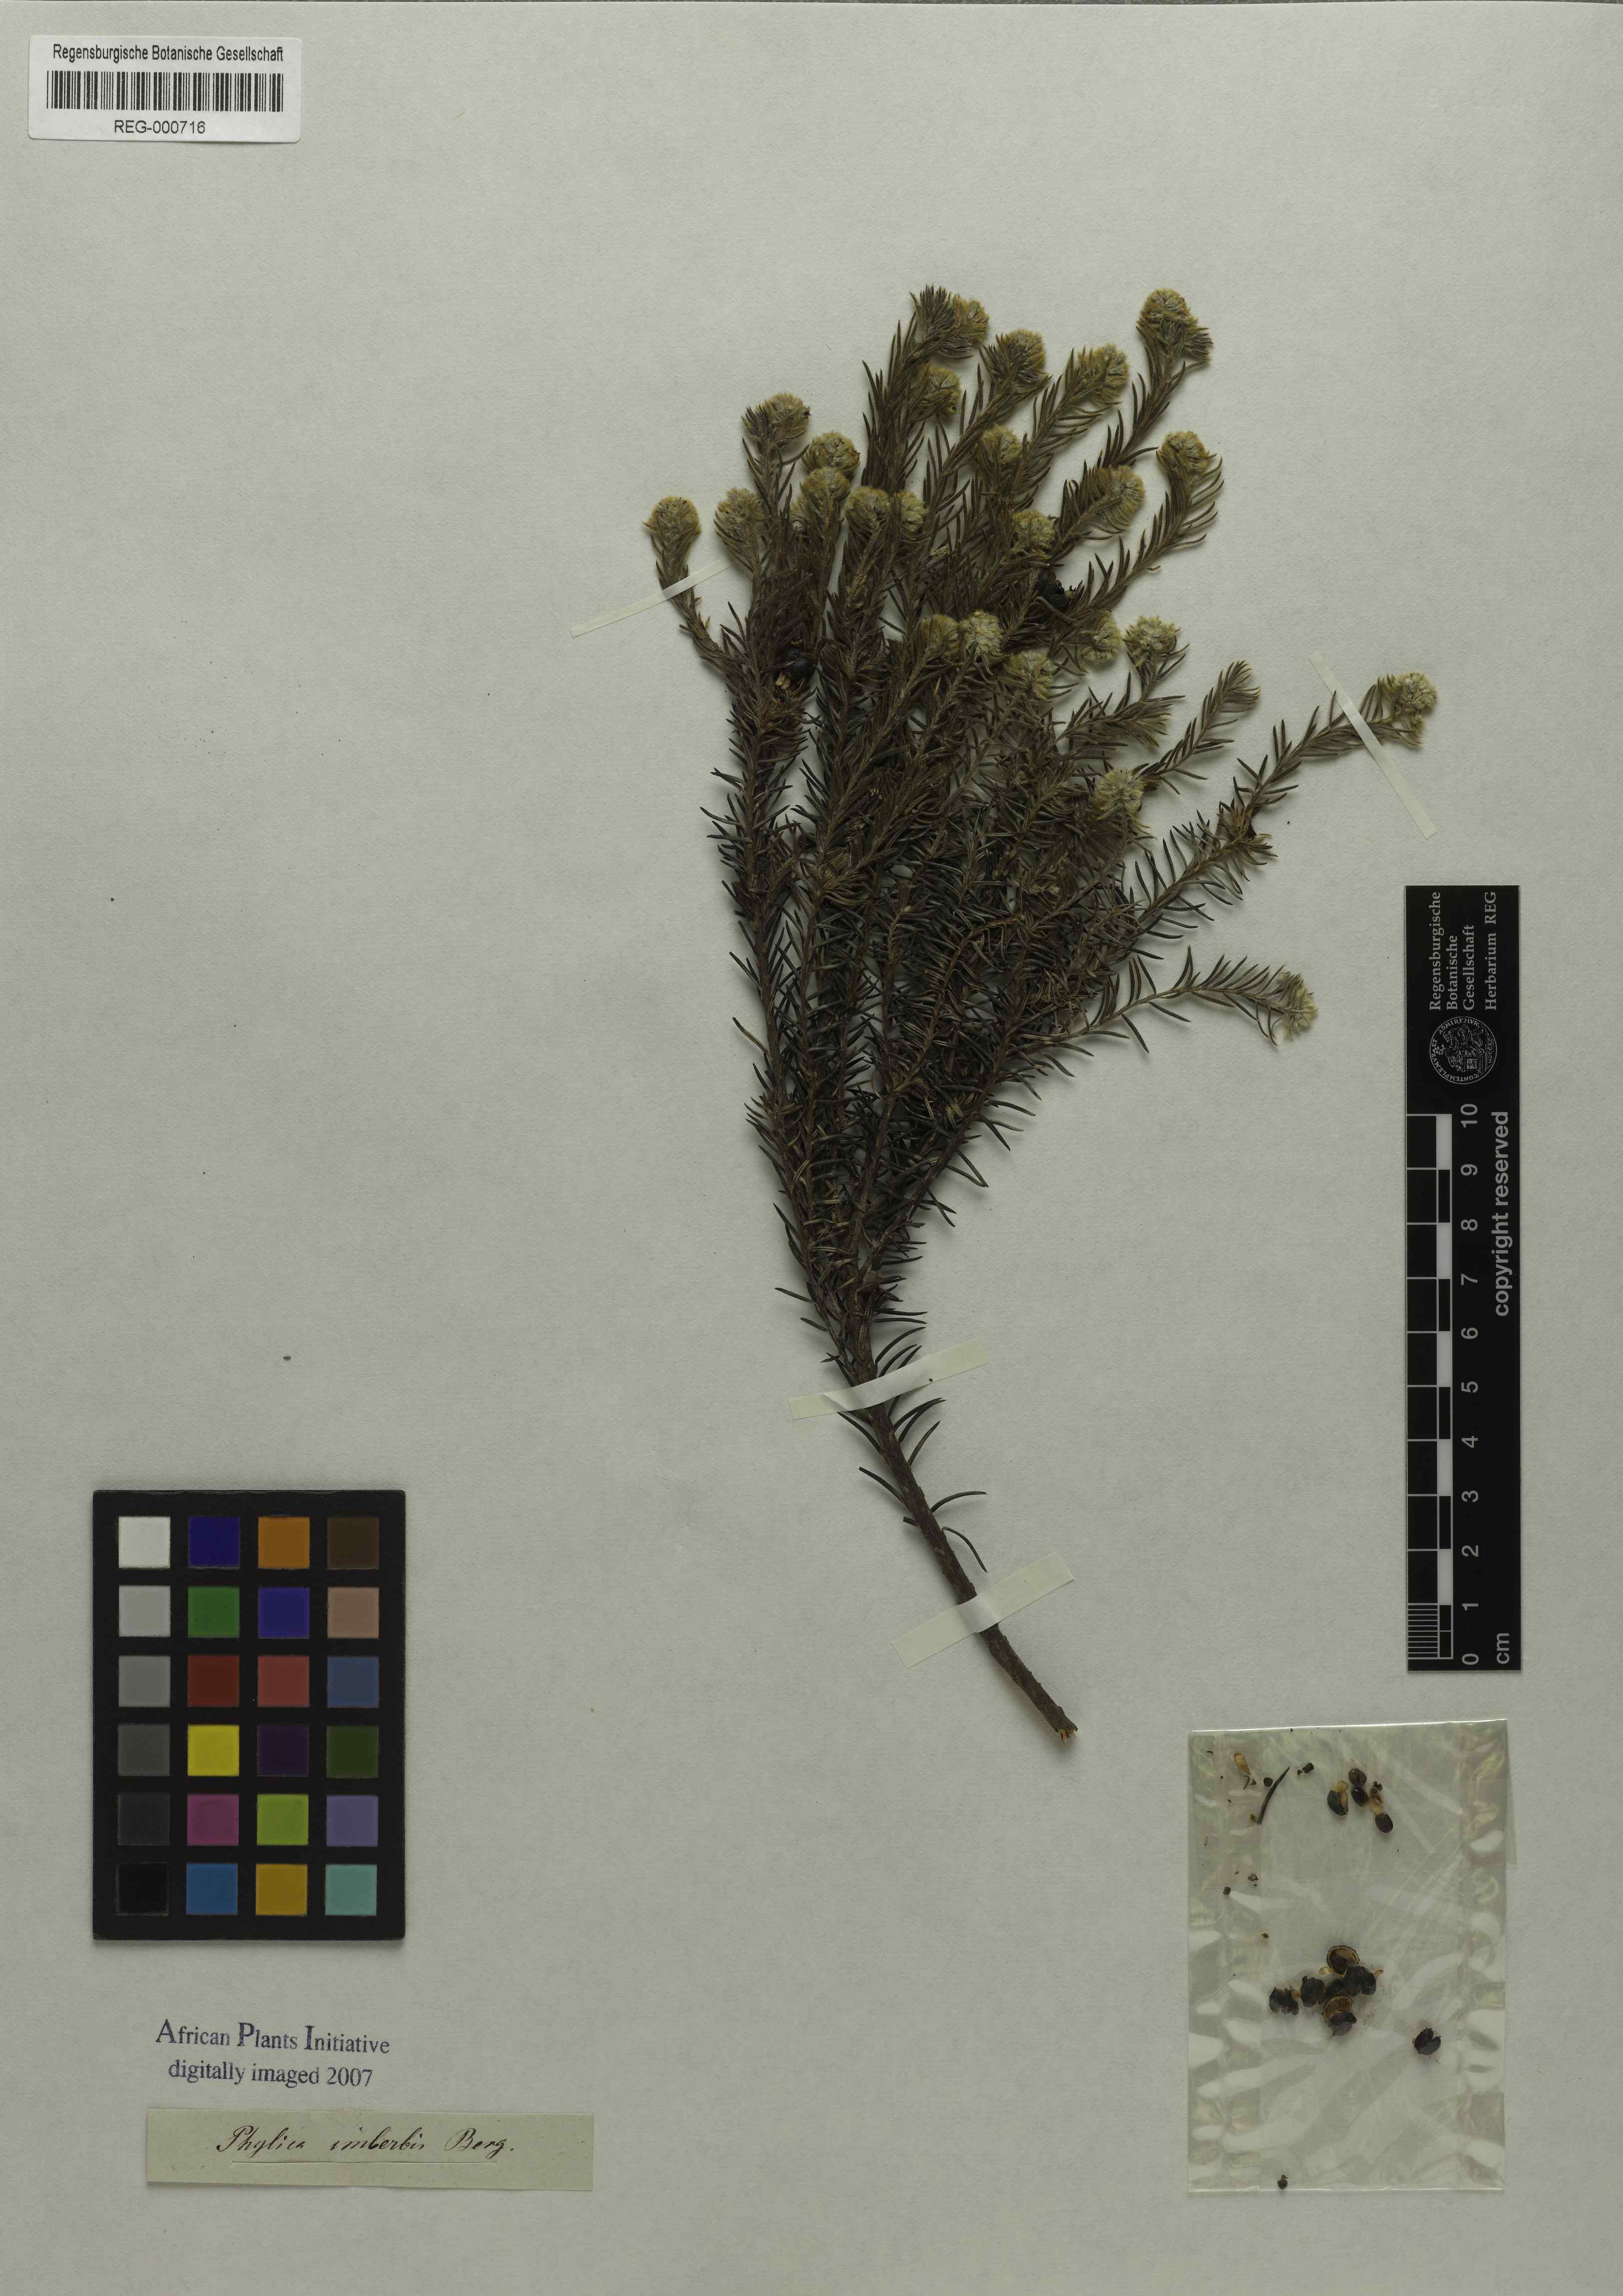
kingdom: Plantae
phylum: Tracheophyta
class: Magnoliopsida
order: Rosales
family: Rhamnaceae
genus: Phylica
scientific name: Phylica excelsa
